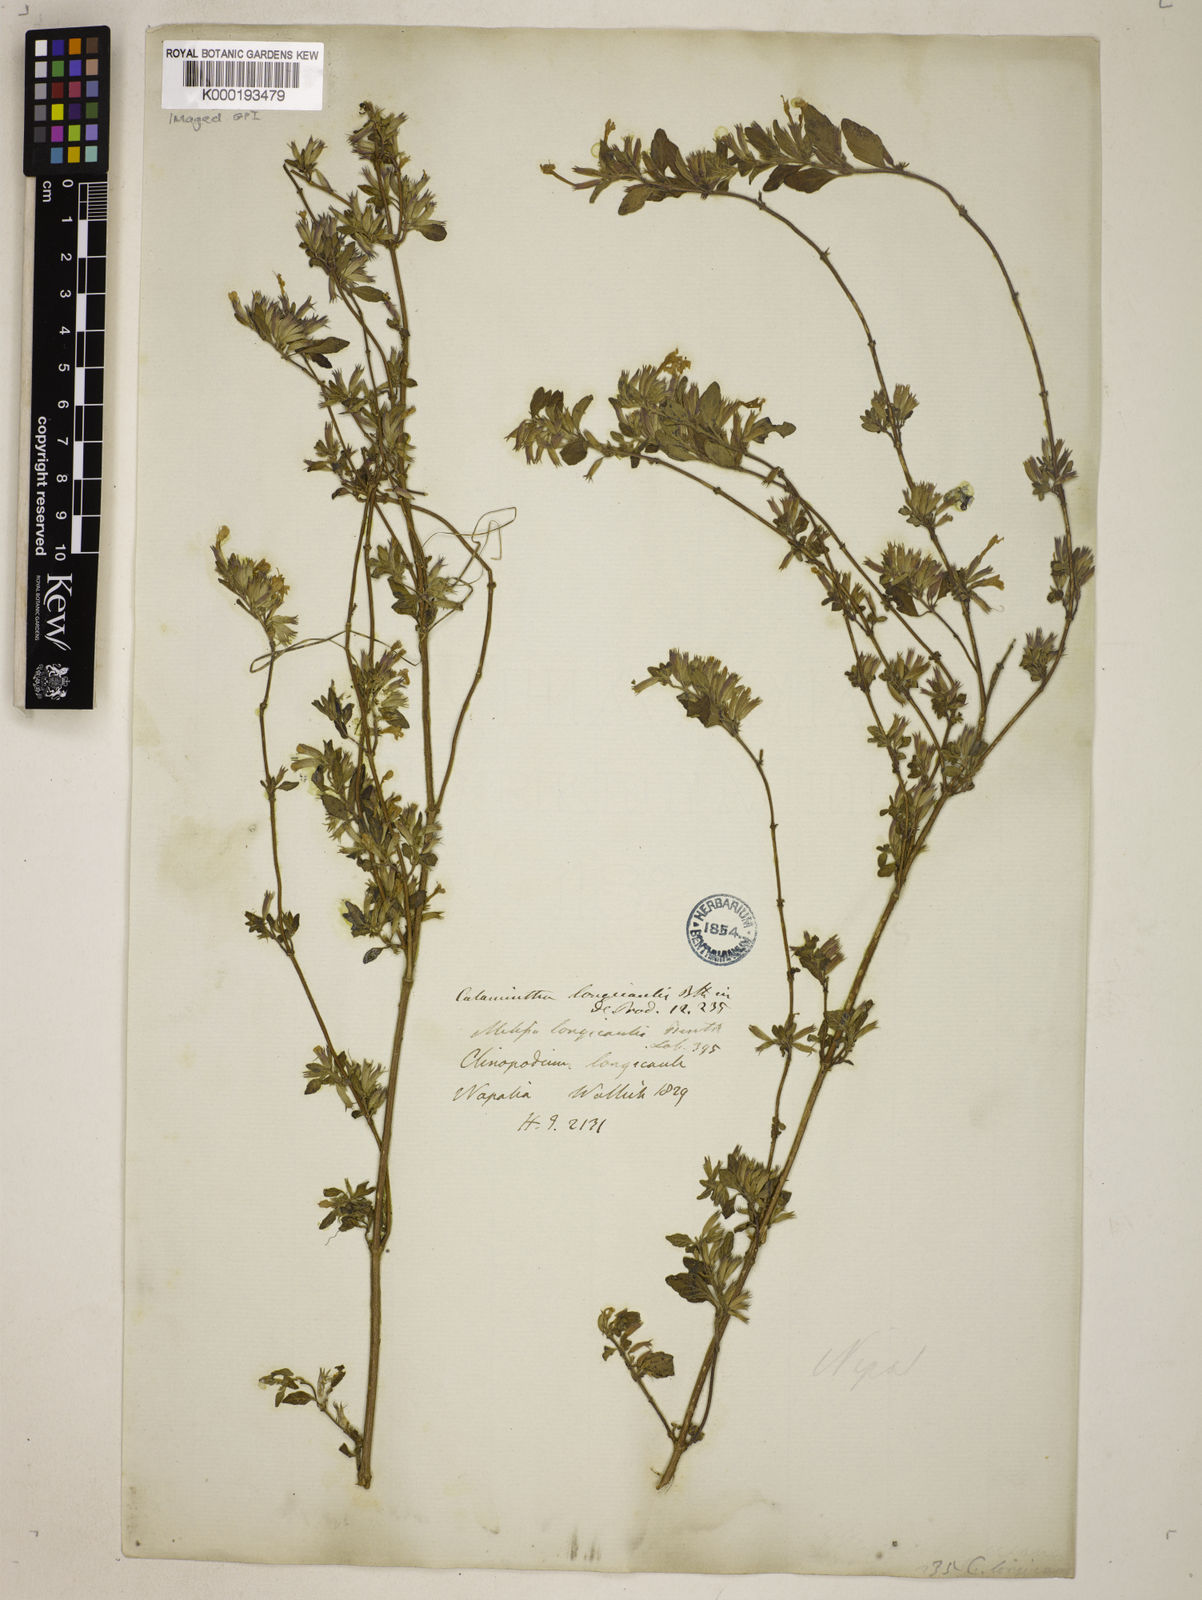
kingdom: Plantae
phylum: Tracheophyta
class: Magnoliopsida
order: Lamiales
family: Lamiaceae
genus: Clinopodium
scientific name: Clinopodium
